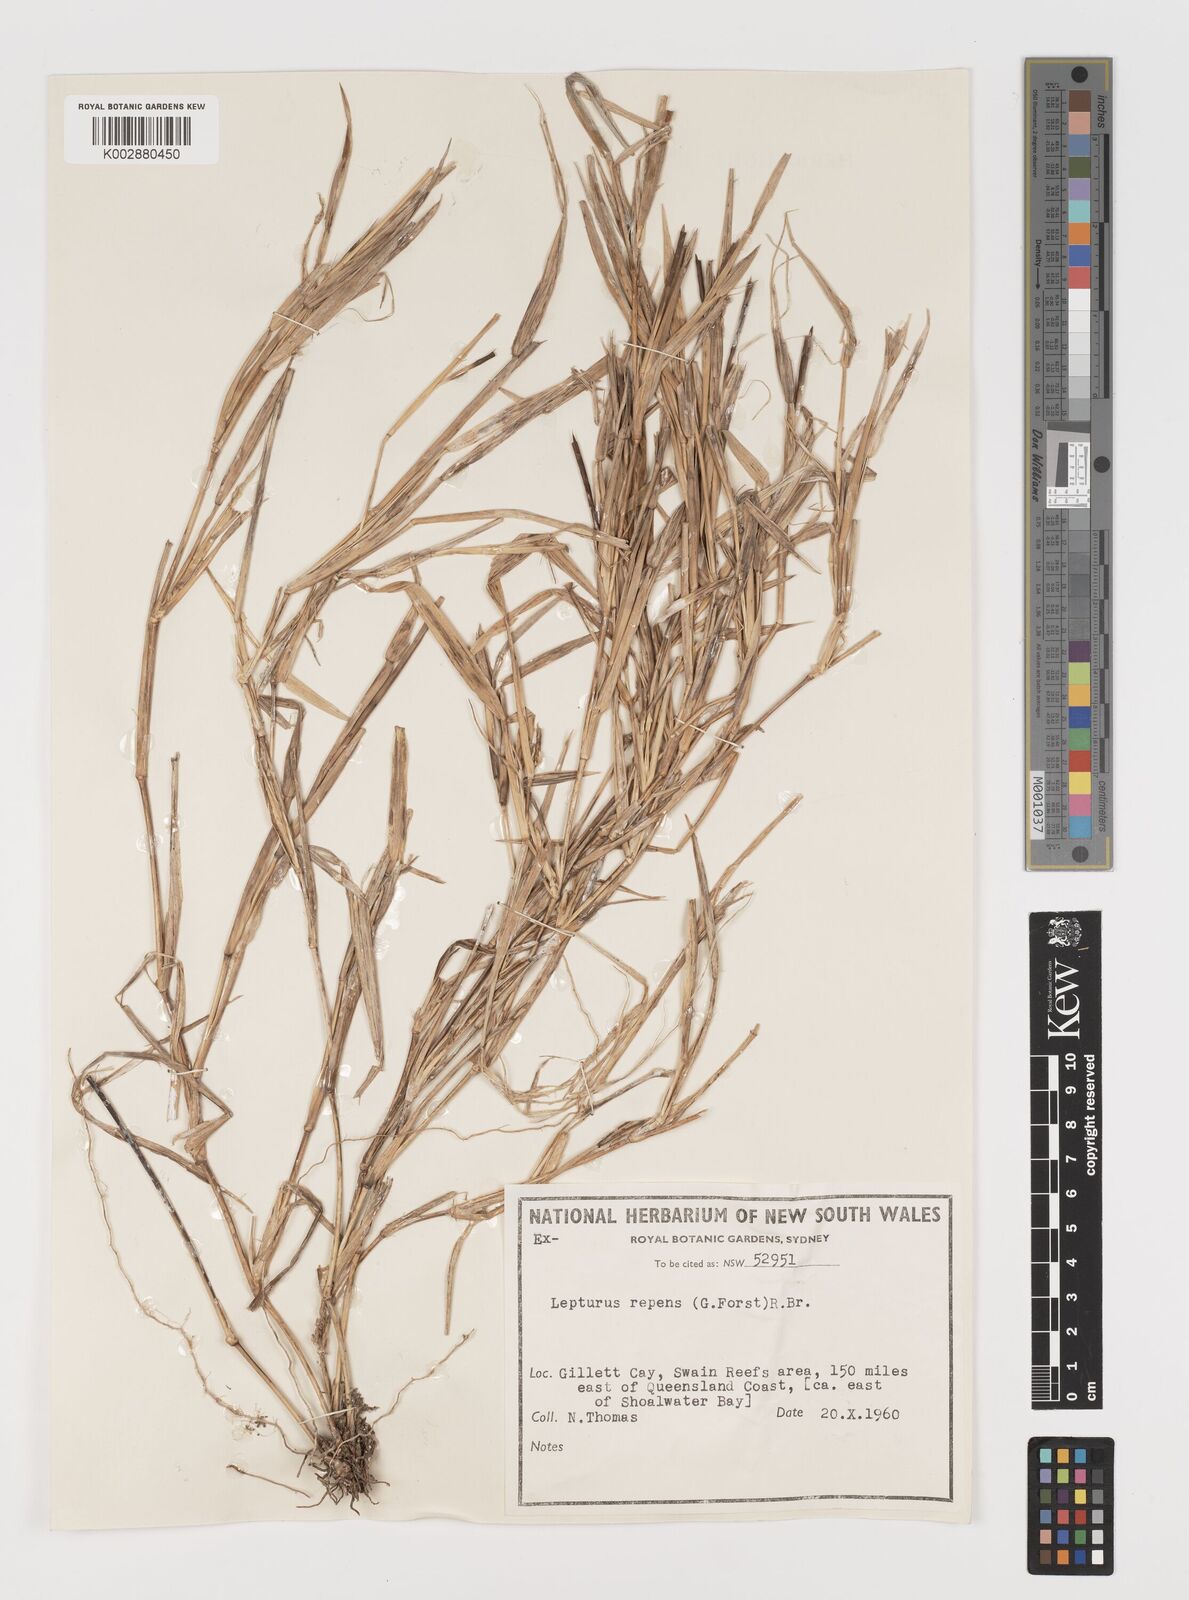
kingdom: Plantae
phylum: Tracheophyta
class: Liliopsida
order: Poales
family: Poaceae
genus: Lepturus
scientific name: Lepturus repens
